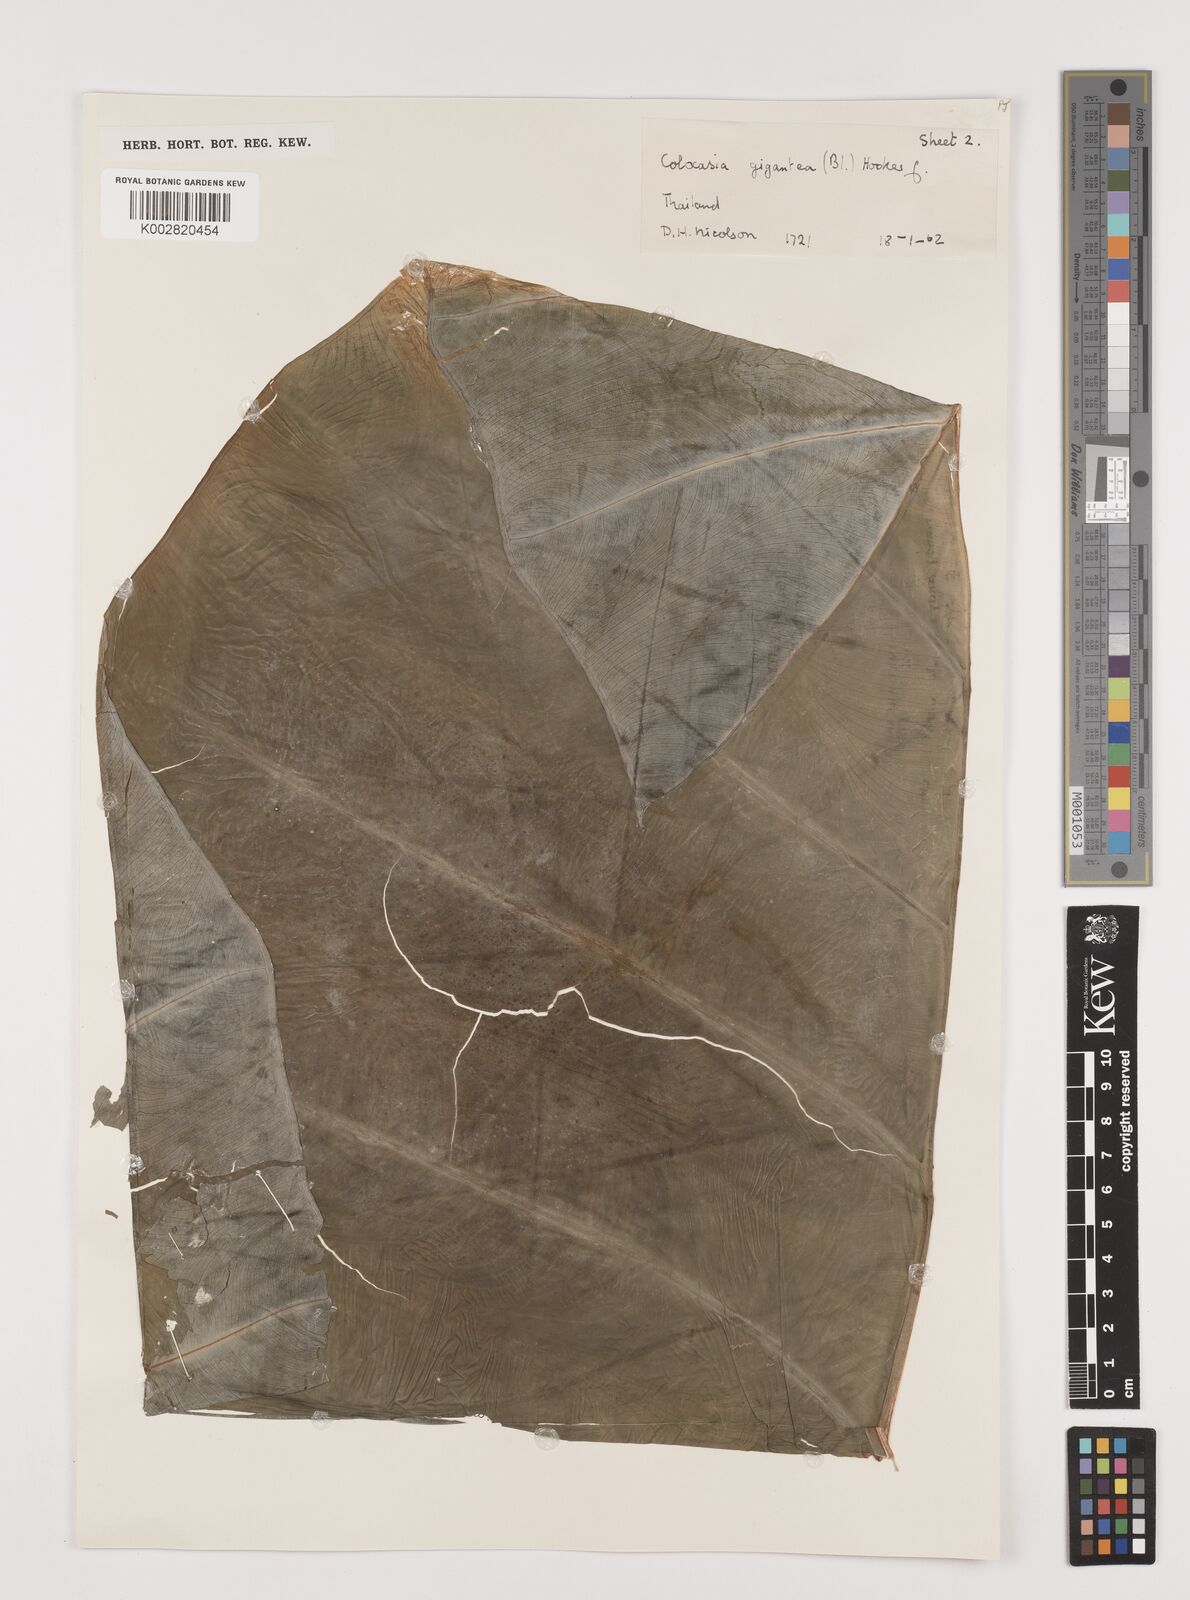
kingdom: Plantae
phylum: Tracheophyta
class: Liliopsida
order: Alismatales
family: Araceae
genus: Leucocasia
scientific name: Leucocasia gigantea
